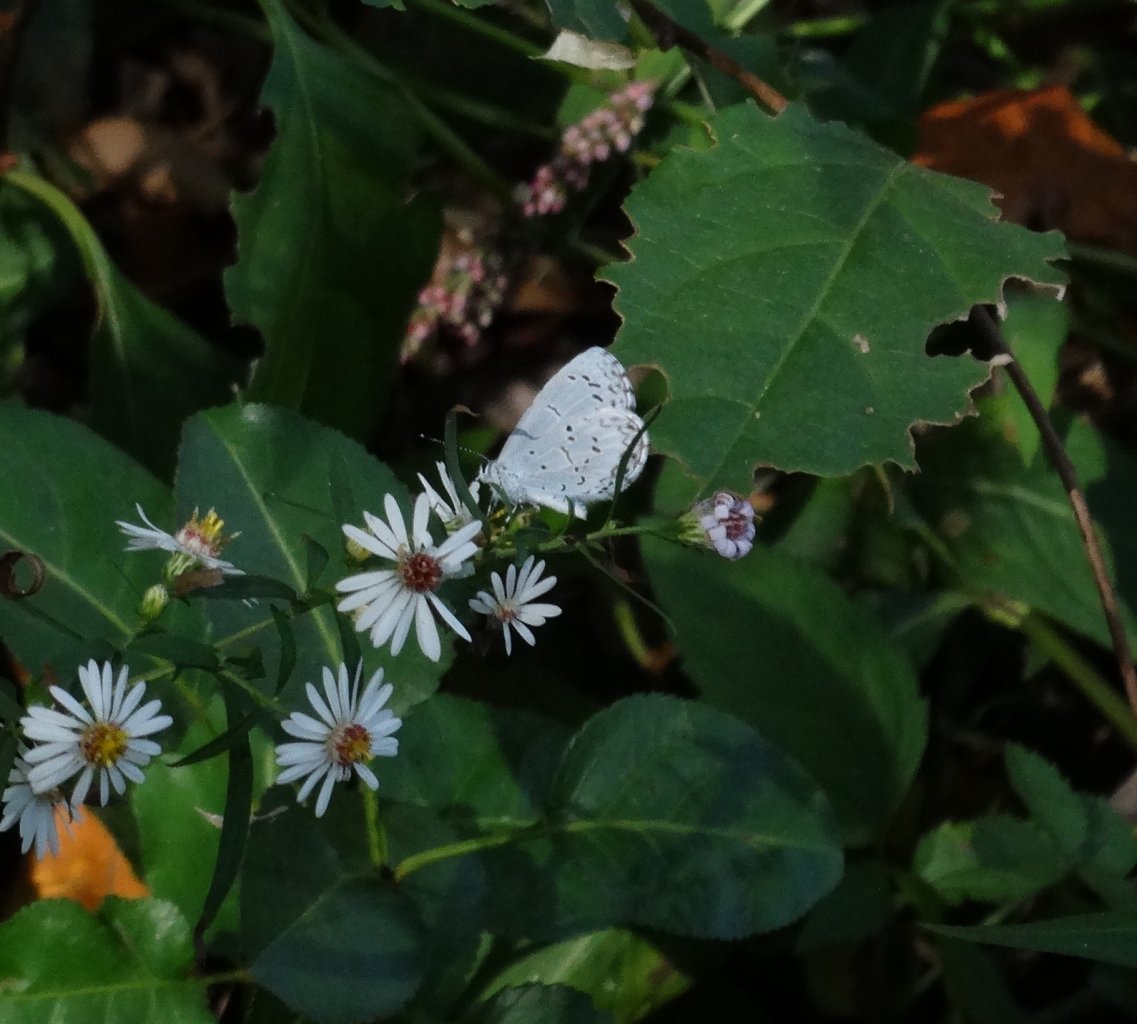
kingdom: Animalia
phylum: Arthropoda
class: Insecta
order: Lepidoptera
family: Lycaenidae
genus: Cyaniris
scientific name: Cyaniris neglecta
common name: Summer Azure
